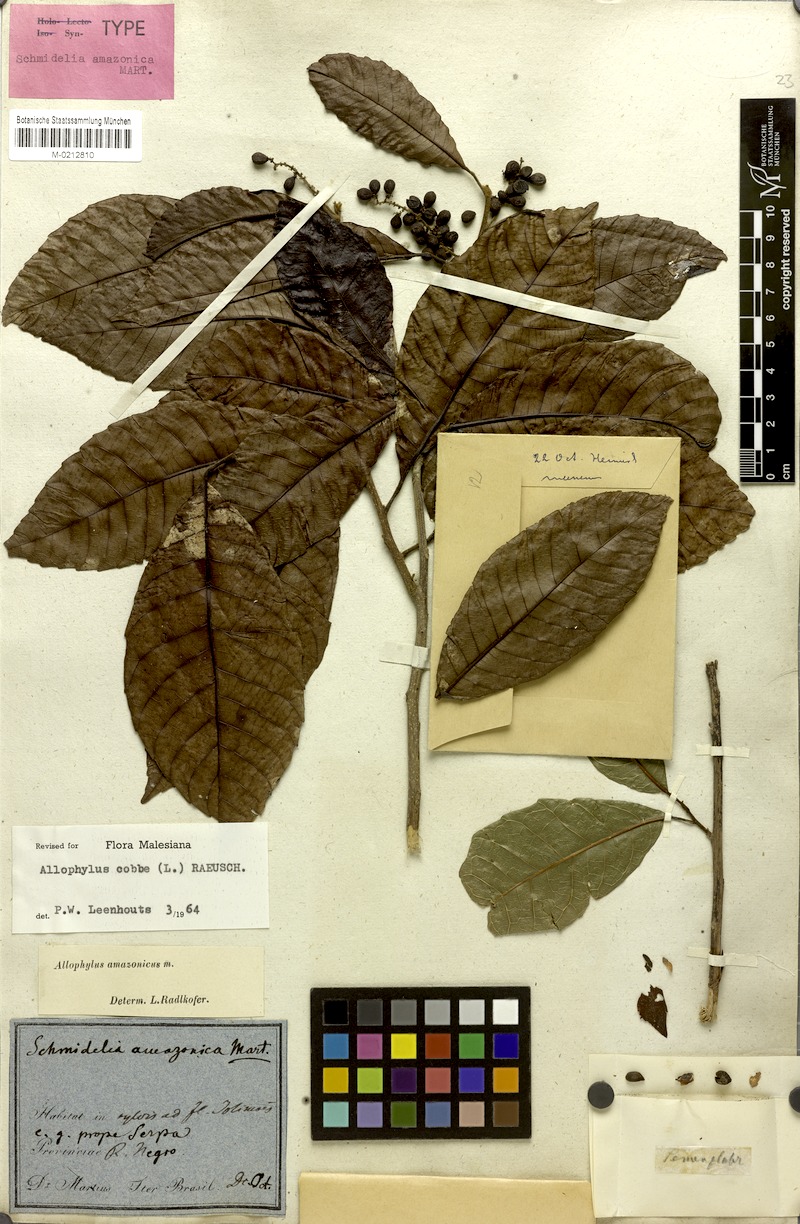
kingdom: Plantae
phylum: Tracheophyta
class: Magnoliopsida
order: Sapindales
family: Sapindaceae
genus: Allophylus
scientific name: Allophylus amazonicus
